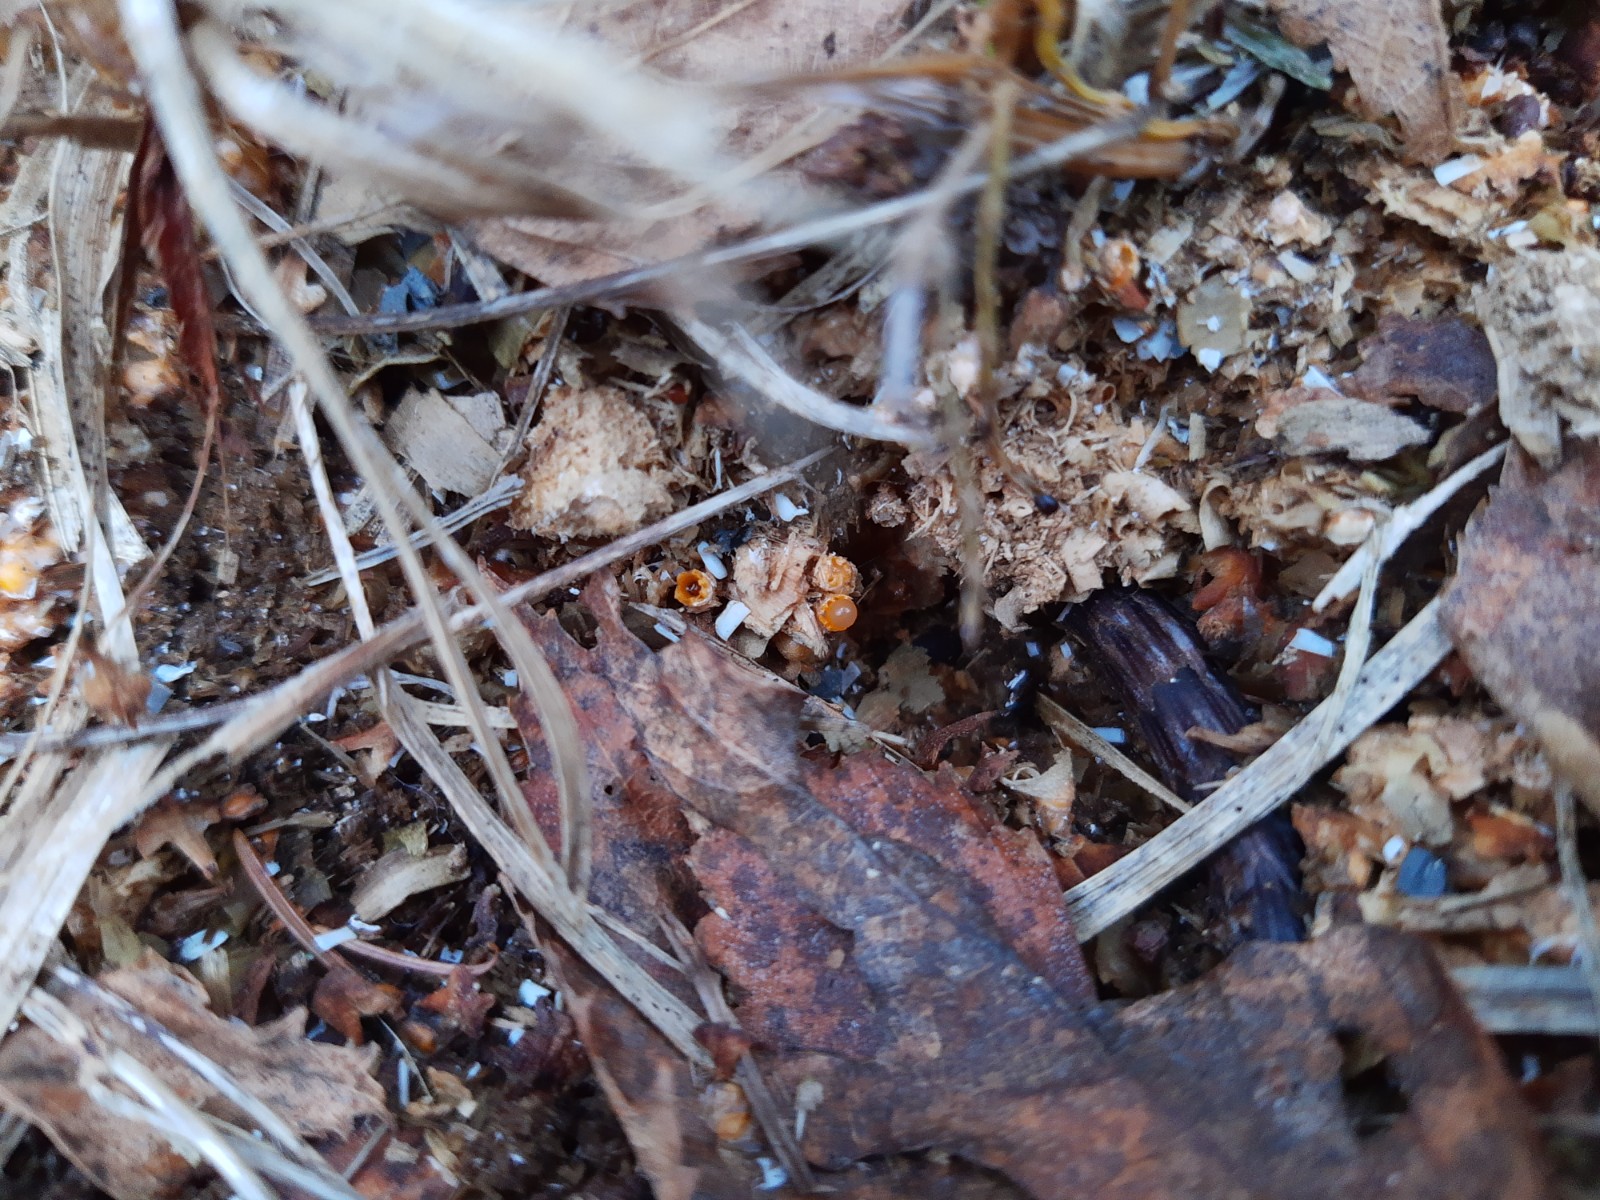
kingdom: Fungi
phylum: Basidiomycota
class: Agaricomycetes
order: Geastrales
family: Geastraceae
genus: Sphaerobolus
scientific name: Sphaerobolus stellatus
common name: bombekaster
